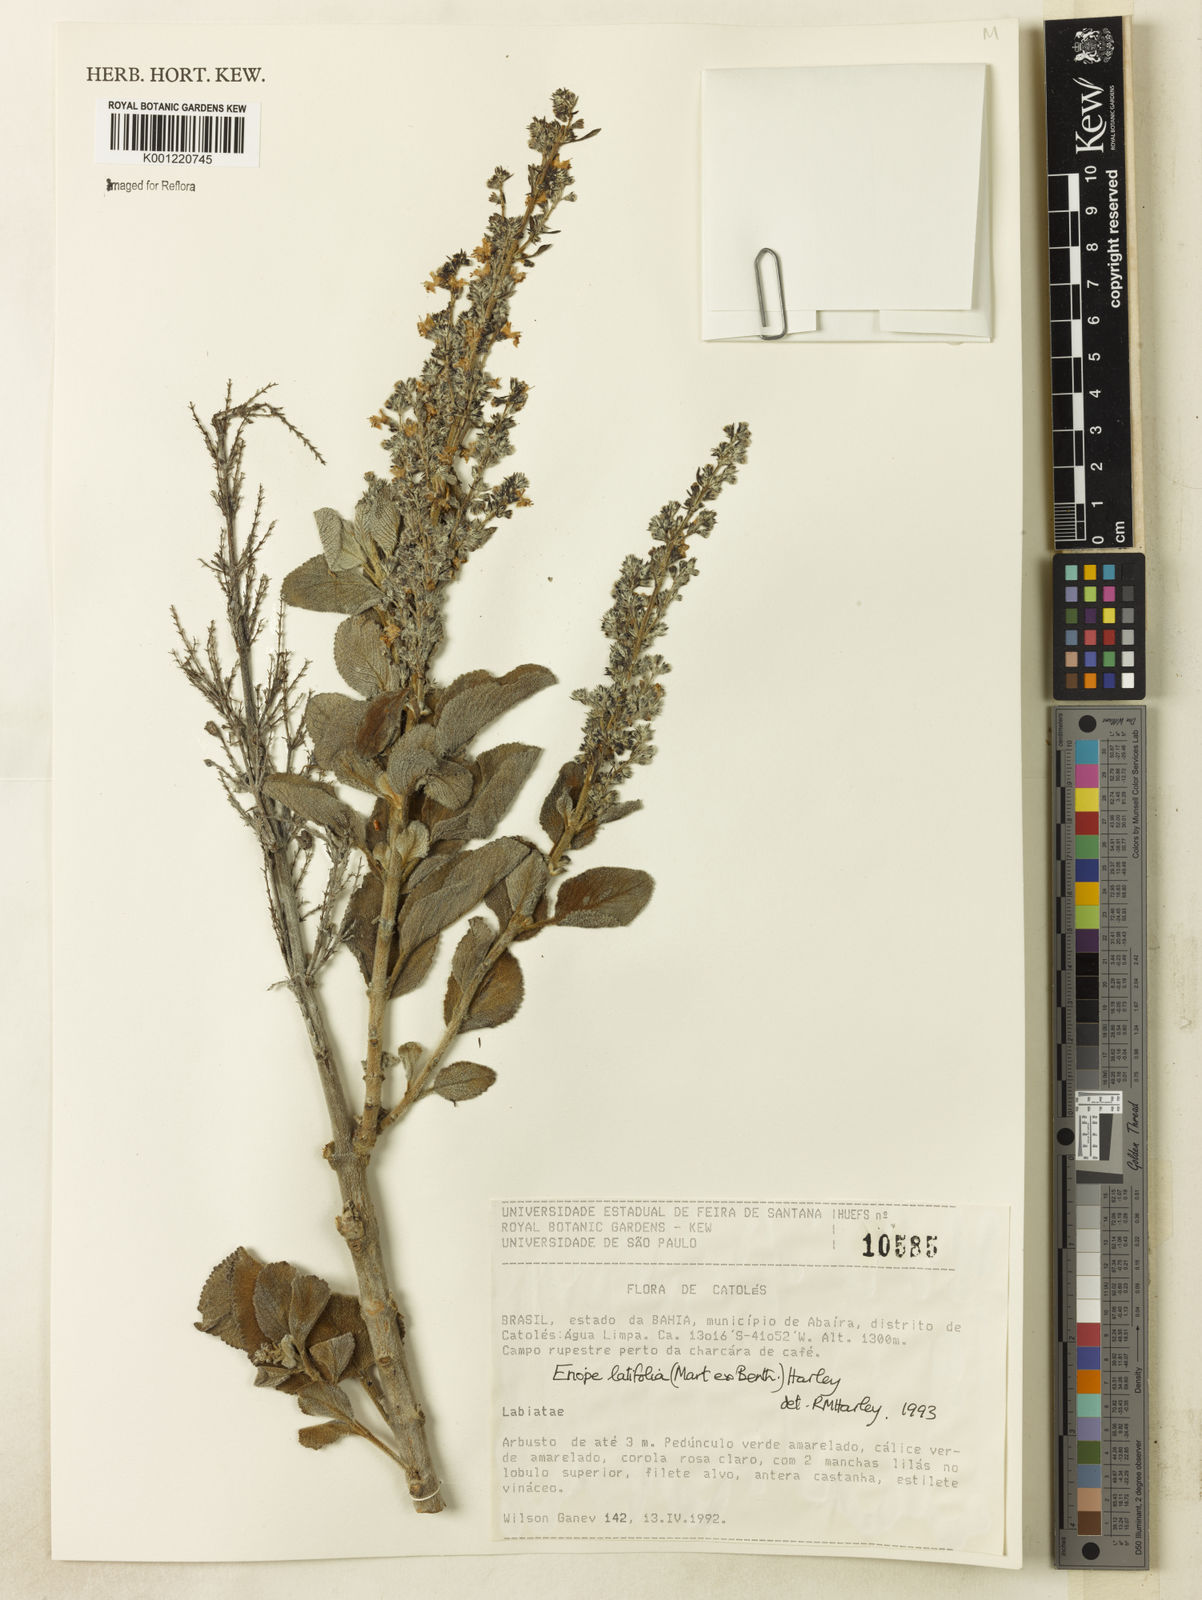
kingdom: Plantae
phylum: Tracheophyta
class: Magnoliopsida
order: Lamiales
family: Lamiaceae
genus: Eriope
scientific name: Eriope latifolia
